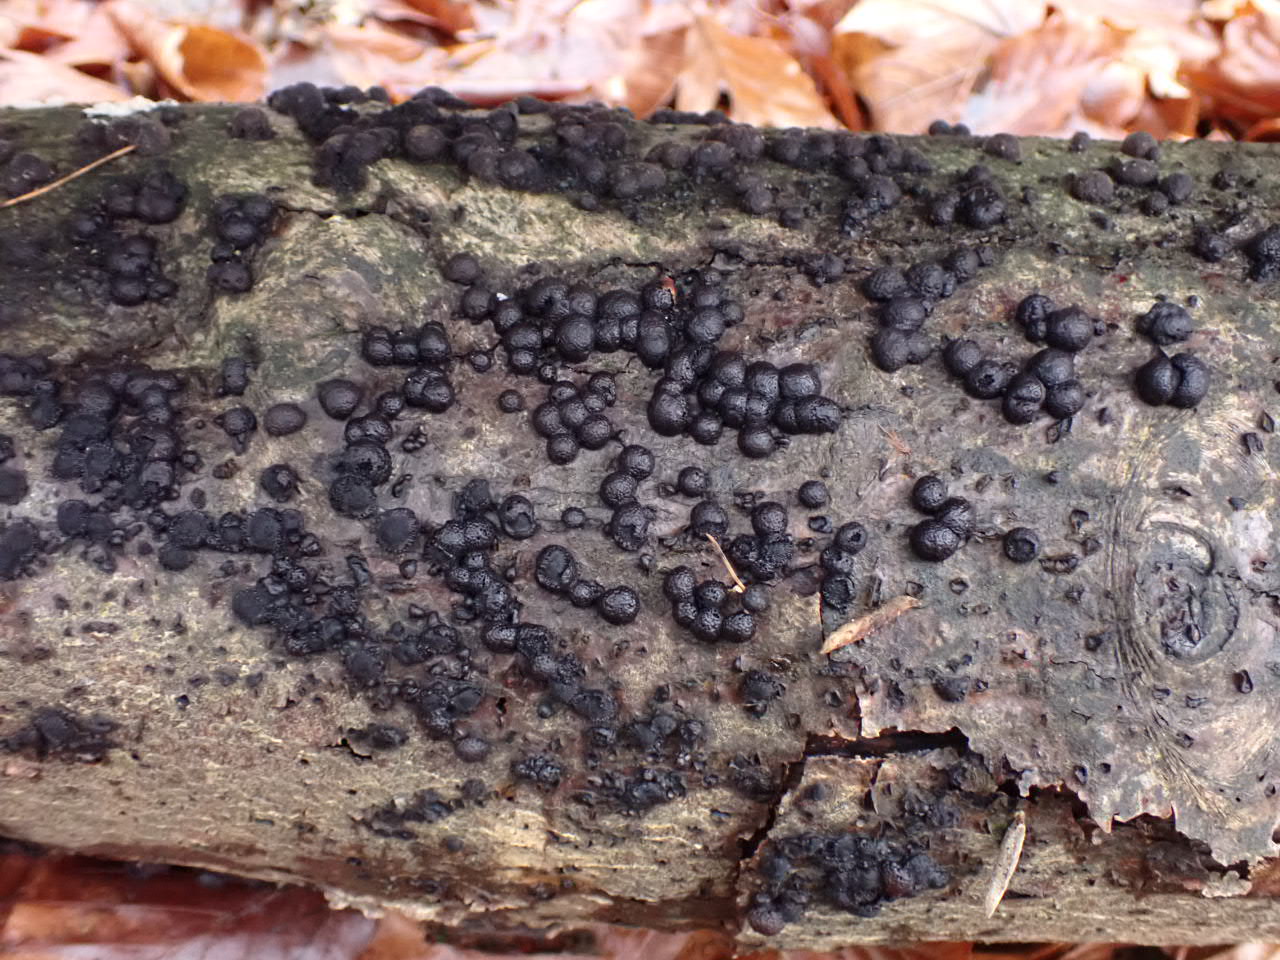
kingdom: Fungi
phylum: Ascomycota
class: Sordariomycetes
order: Xylariales
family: Hypoxylaceae
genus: Hypoxylon
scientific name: Hypoxylon fragiforme
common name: kuljordbær
